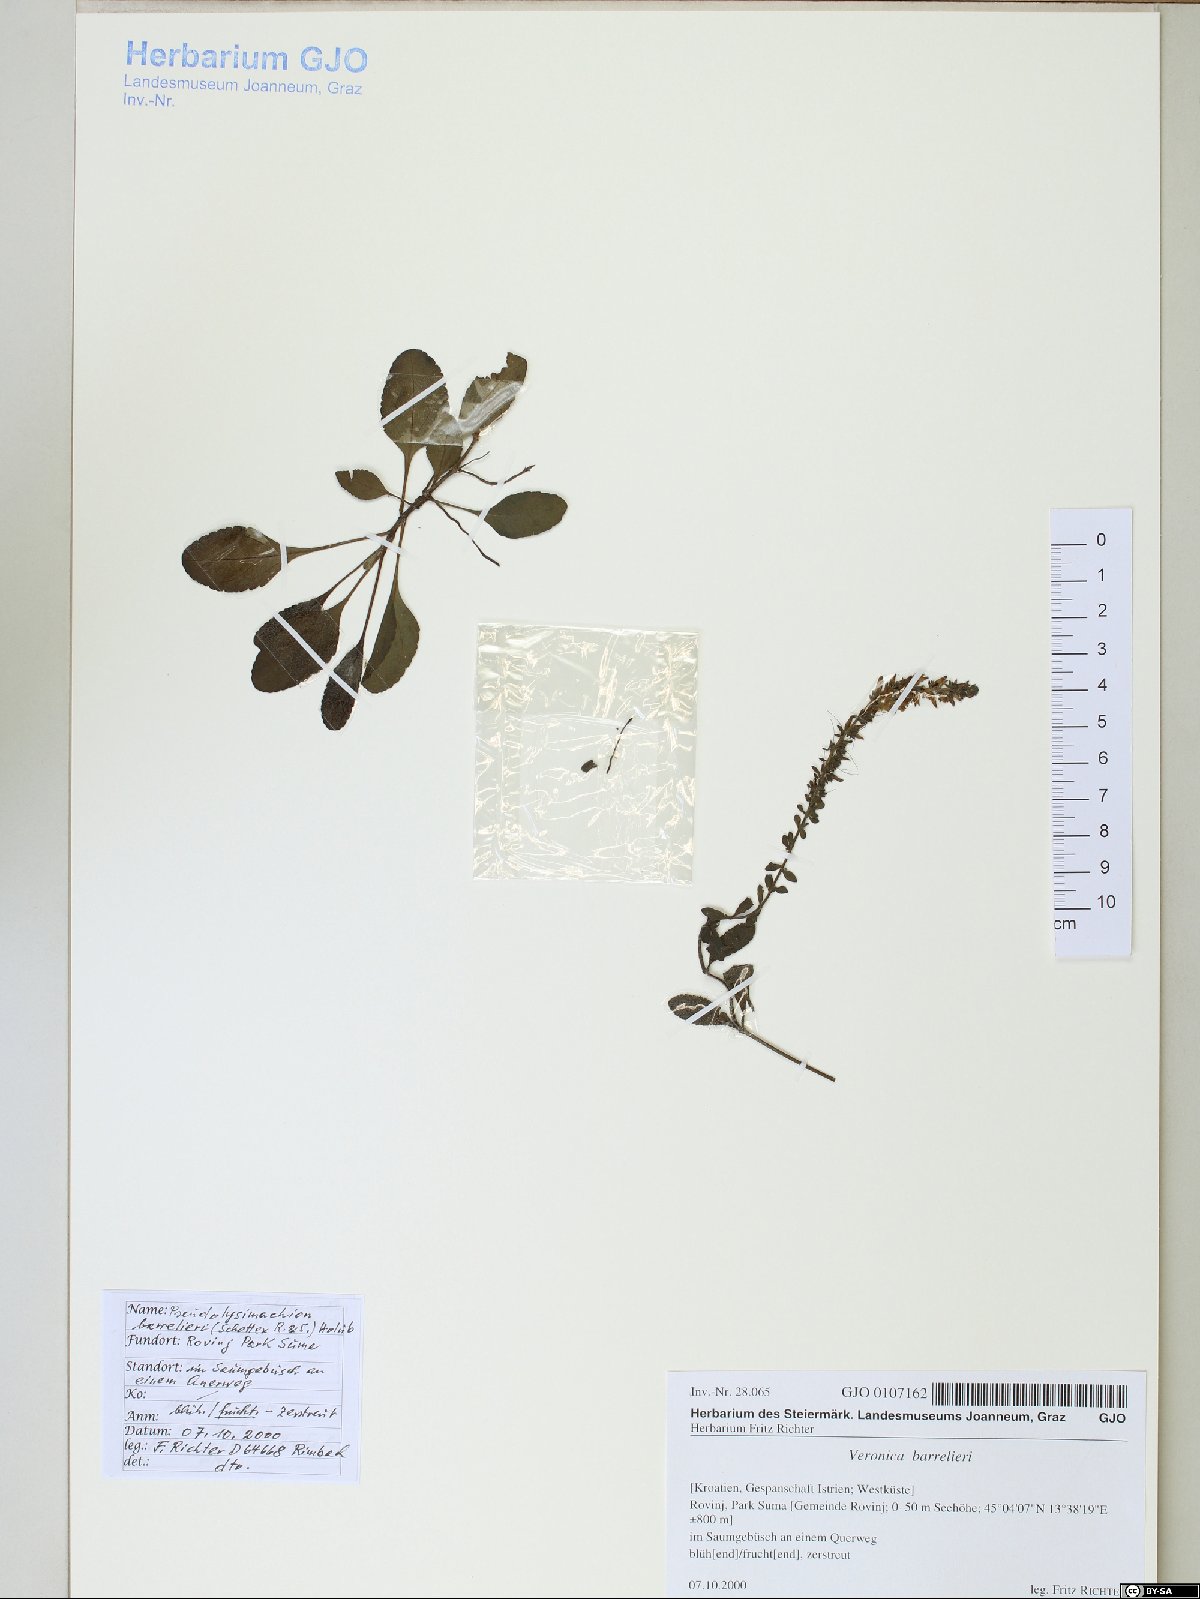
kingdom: Plantae
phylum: Tracheophyta
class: Magnoliopsida
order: Lamiales
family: Plantaginaceae
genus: Veronica
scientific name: Veronica barrelieri
